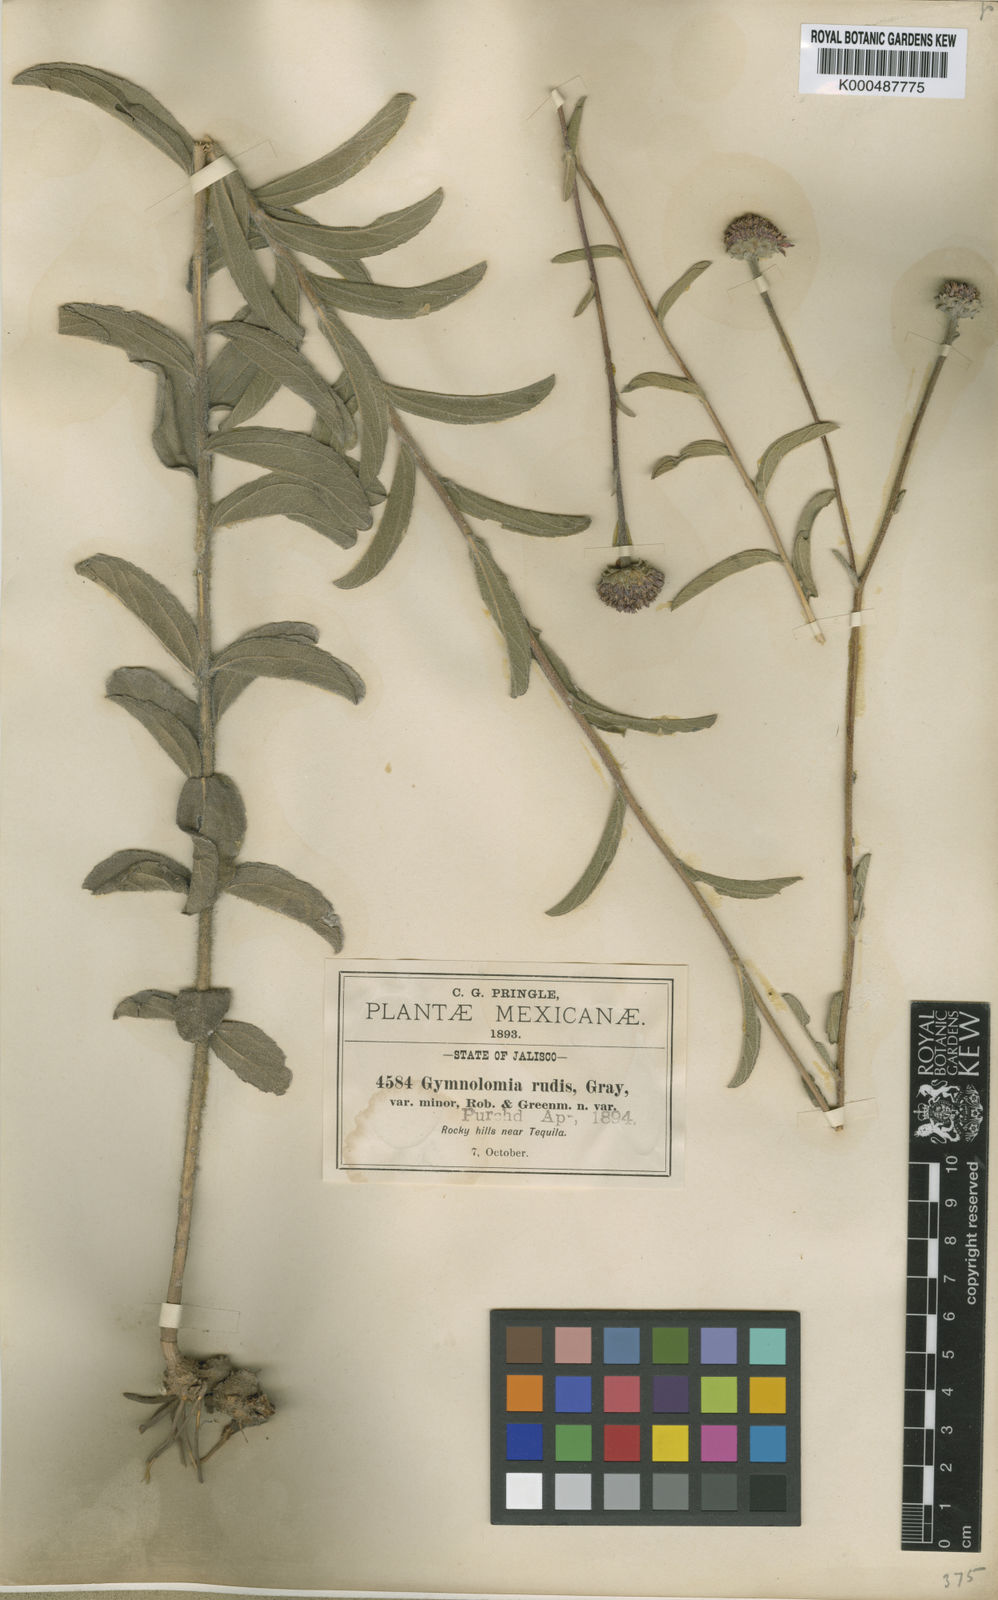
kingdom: Plantae
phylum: Tracheophyta
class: Magnoliopsida
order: Asterales
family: Asteraceae
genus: Aldama
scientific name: Aldama parkinsonii
